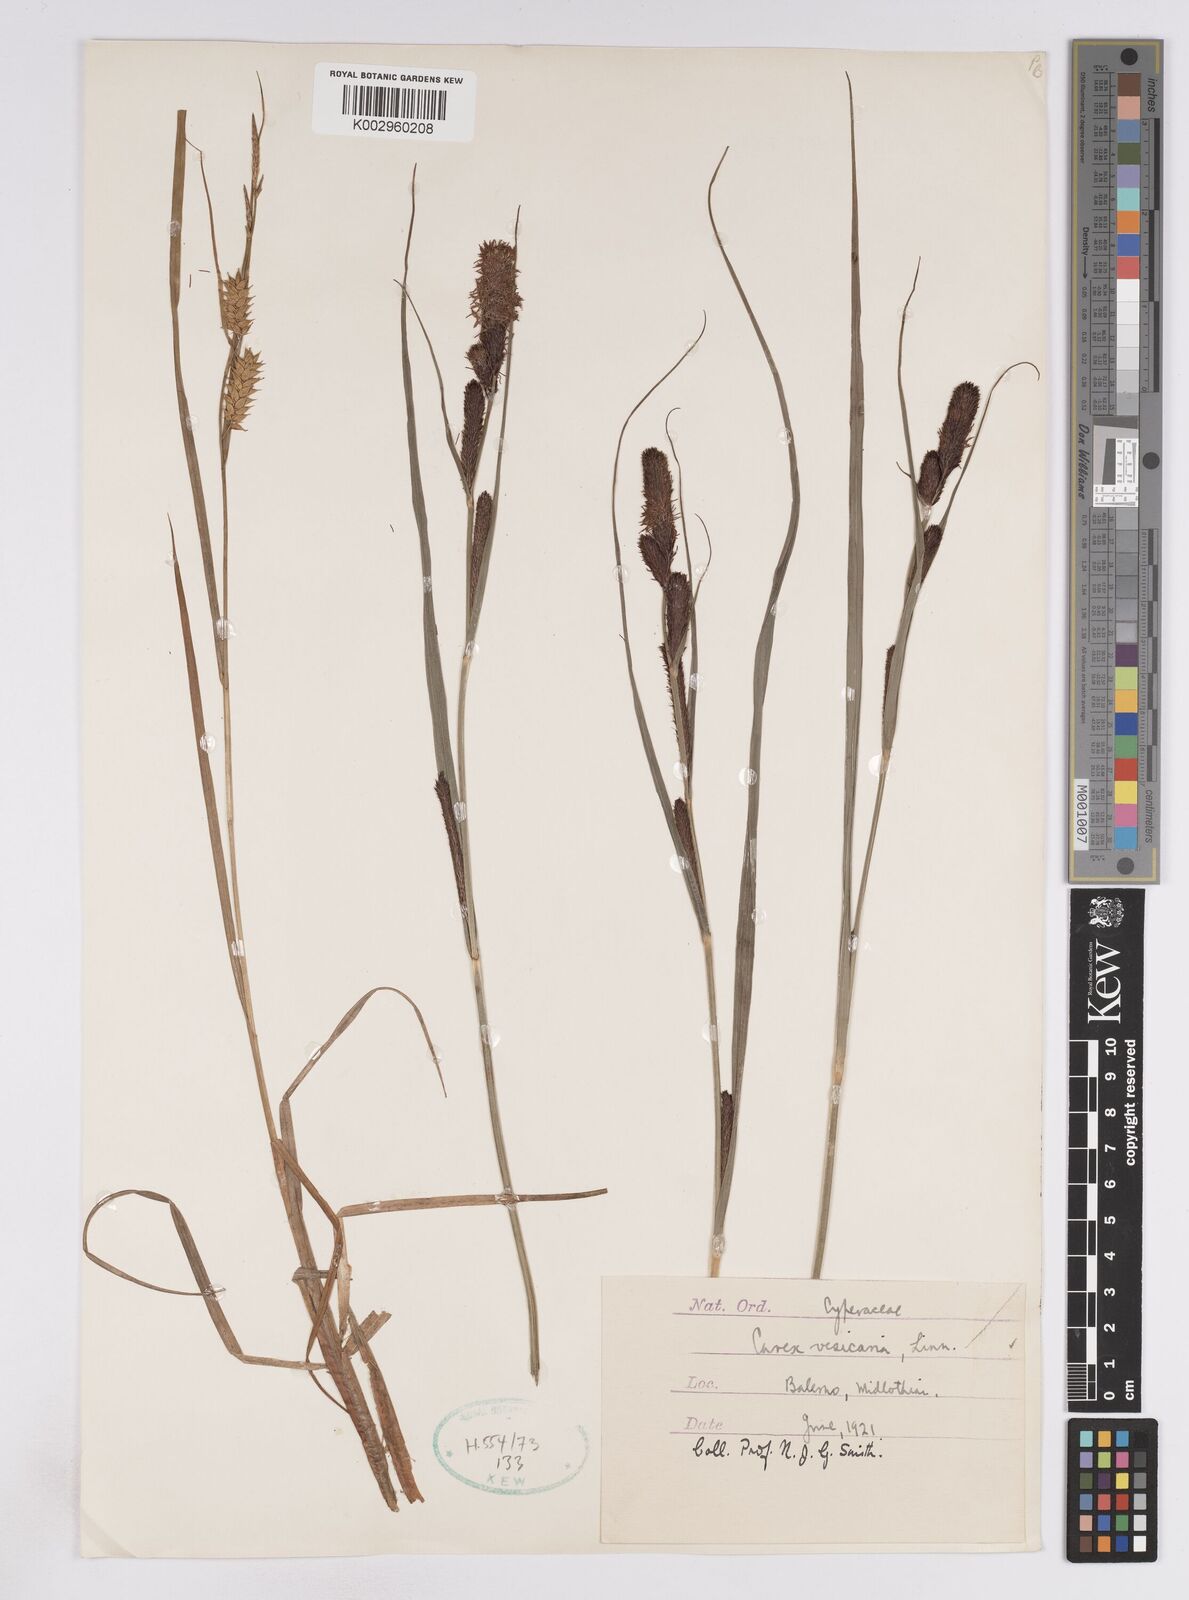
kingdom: Plantae
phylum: Tracheophyta
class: Liliopsida
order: Poales
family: Cyperaceae
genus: Carex
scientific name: Carex vesicaria
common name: Bladder-sedge
